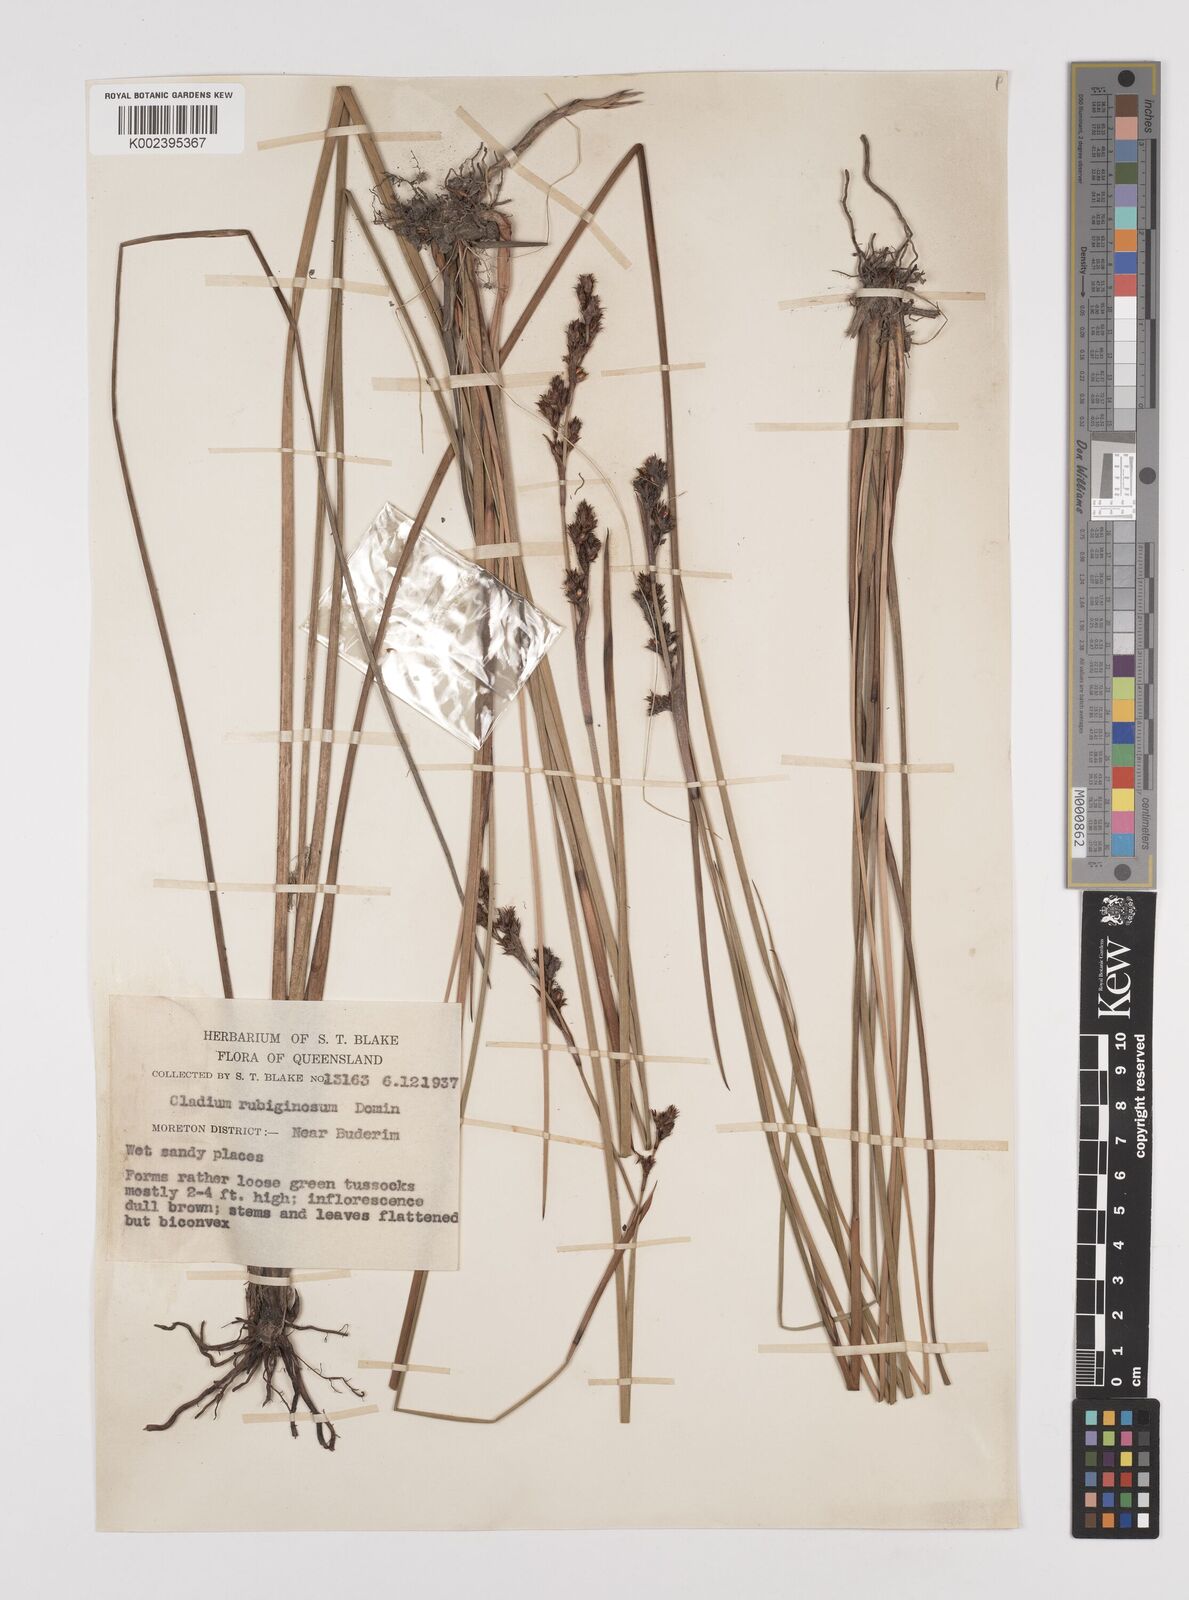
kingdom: Plantae
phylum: Tracheophyta
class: Liliopsida
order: Poales
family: Cyperaceae
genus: Machaerina
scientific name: Machaerina rubiginosa
